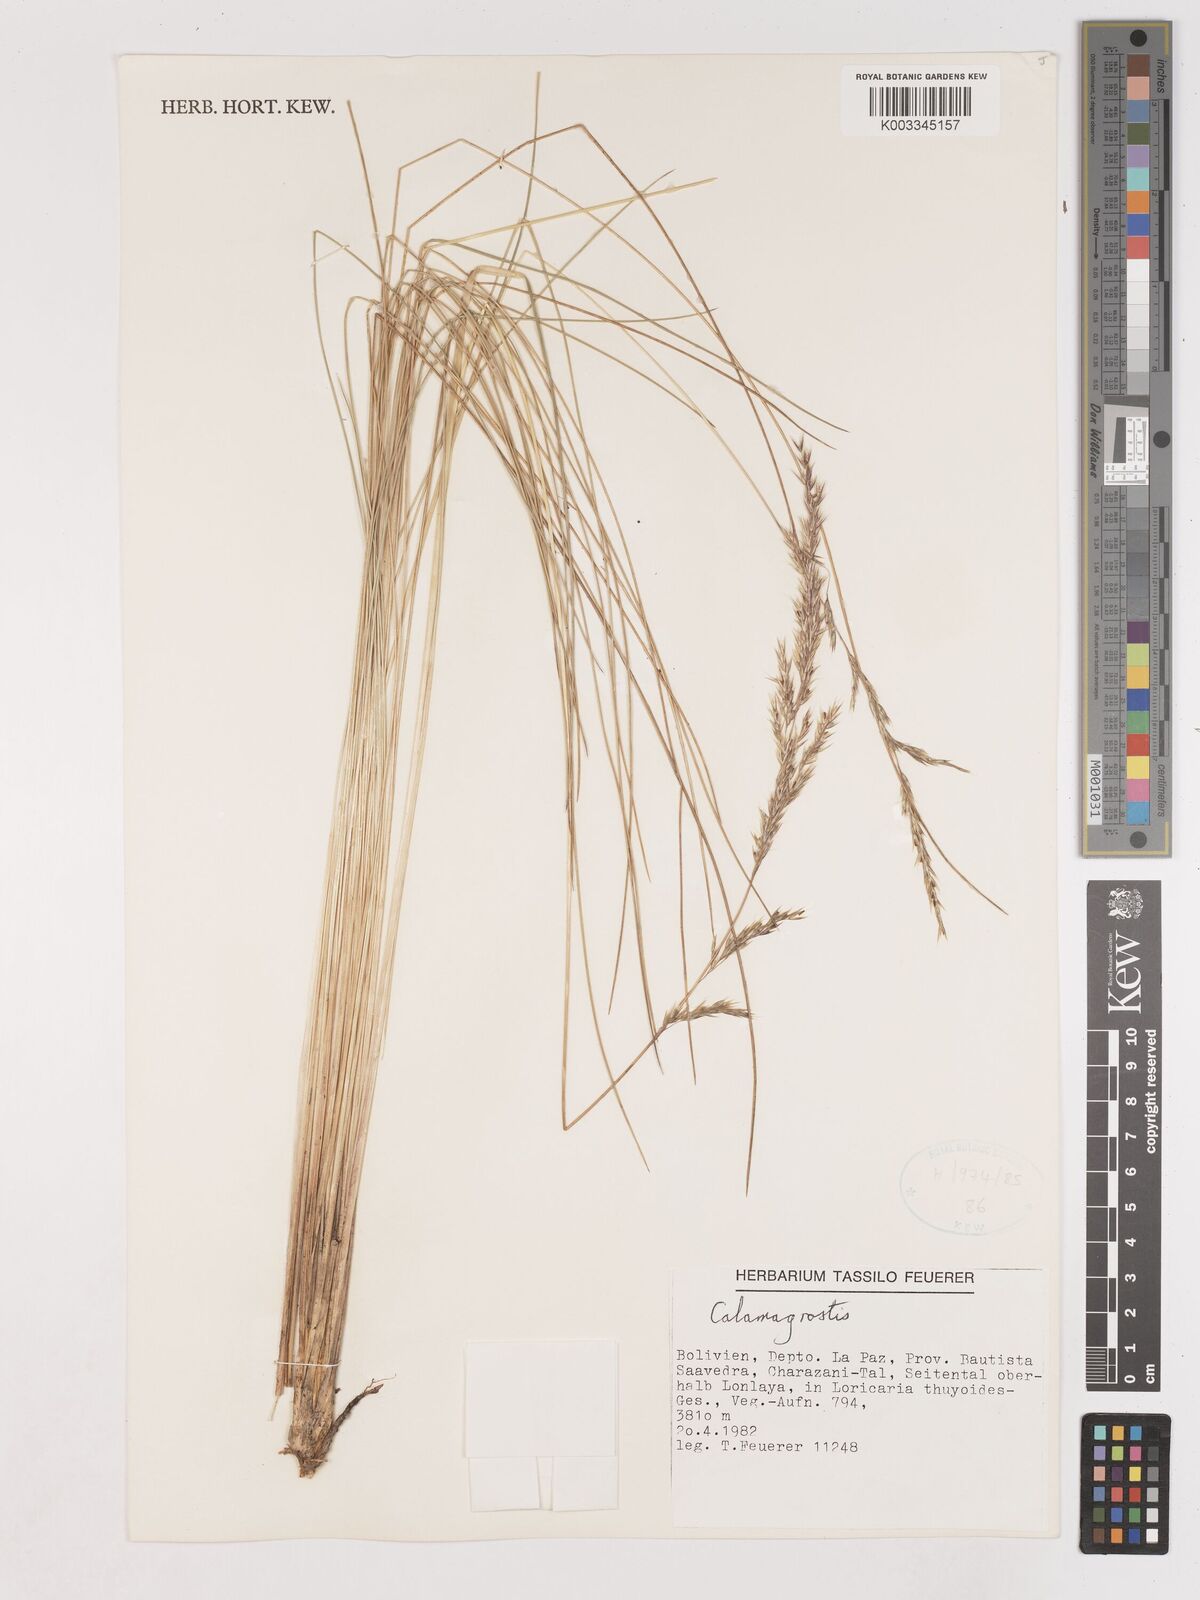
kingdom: Plantae
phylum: Tracheophyta
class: Liliopsida
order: Poales
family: Poaceae
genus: Calamagrostis
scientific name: Calamagrostis
